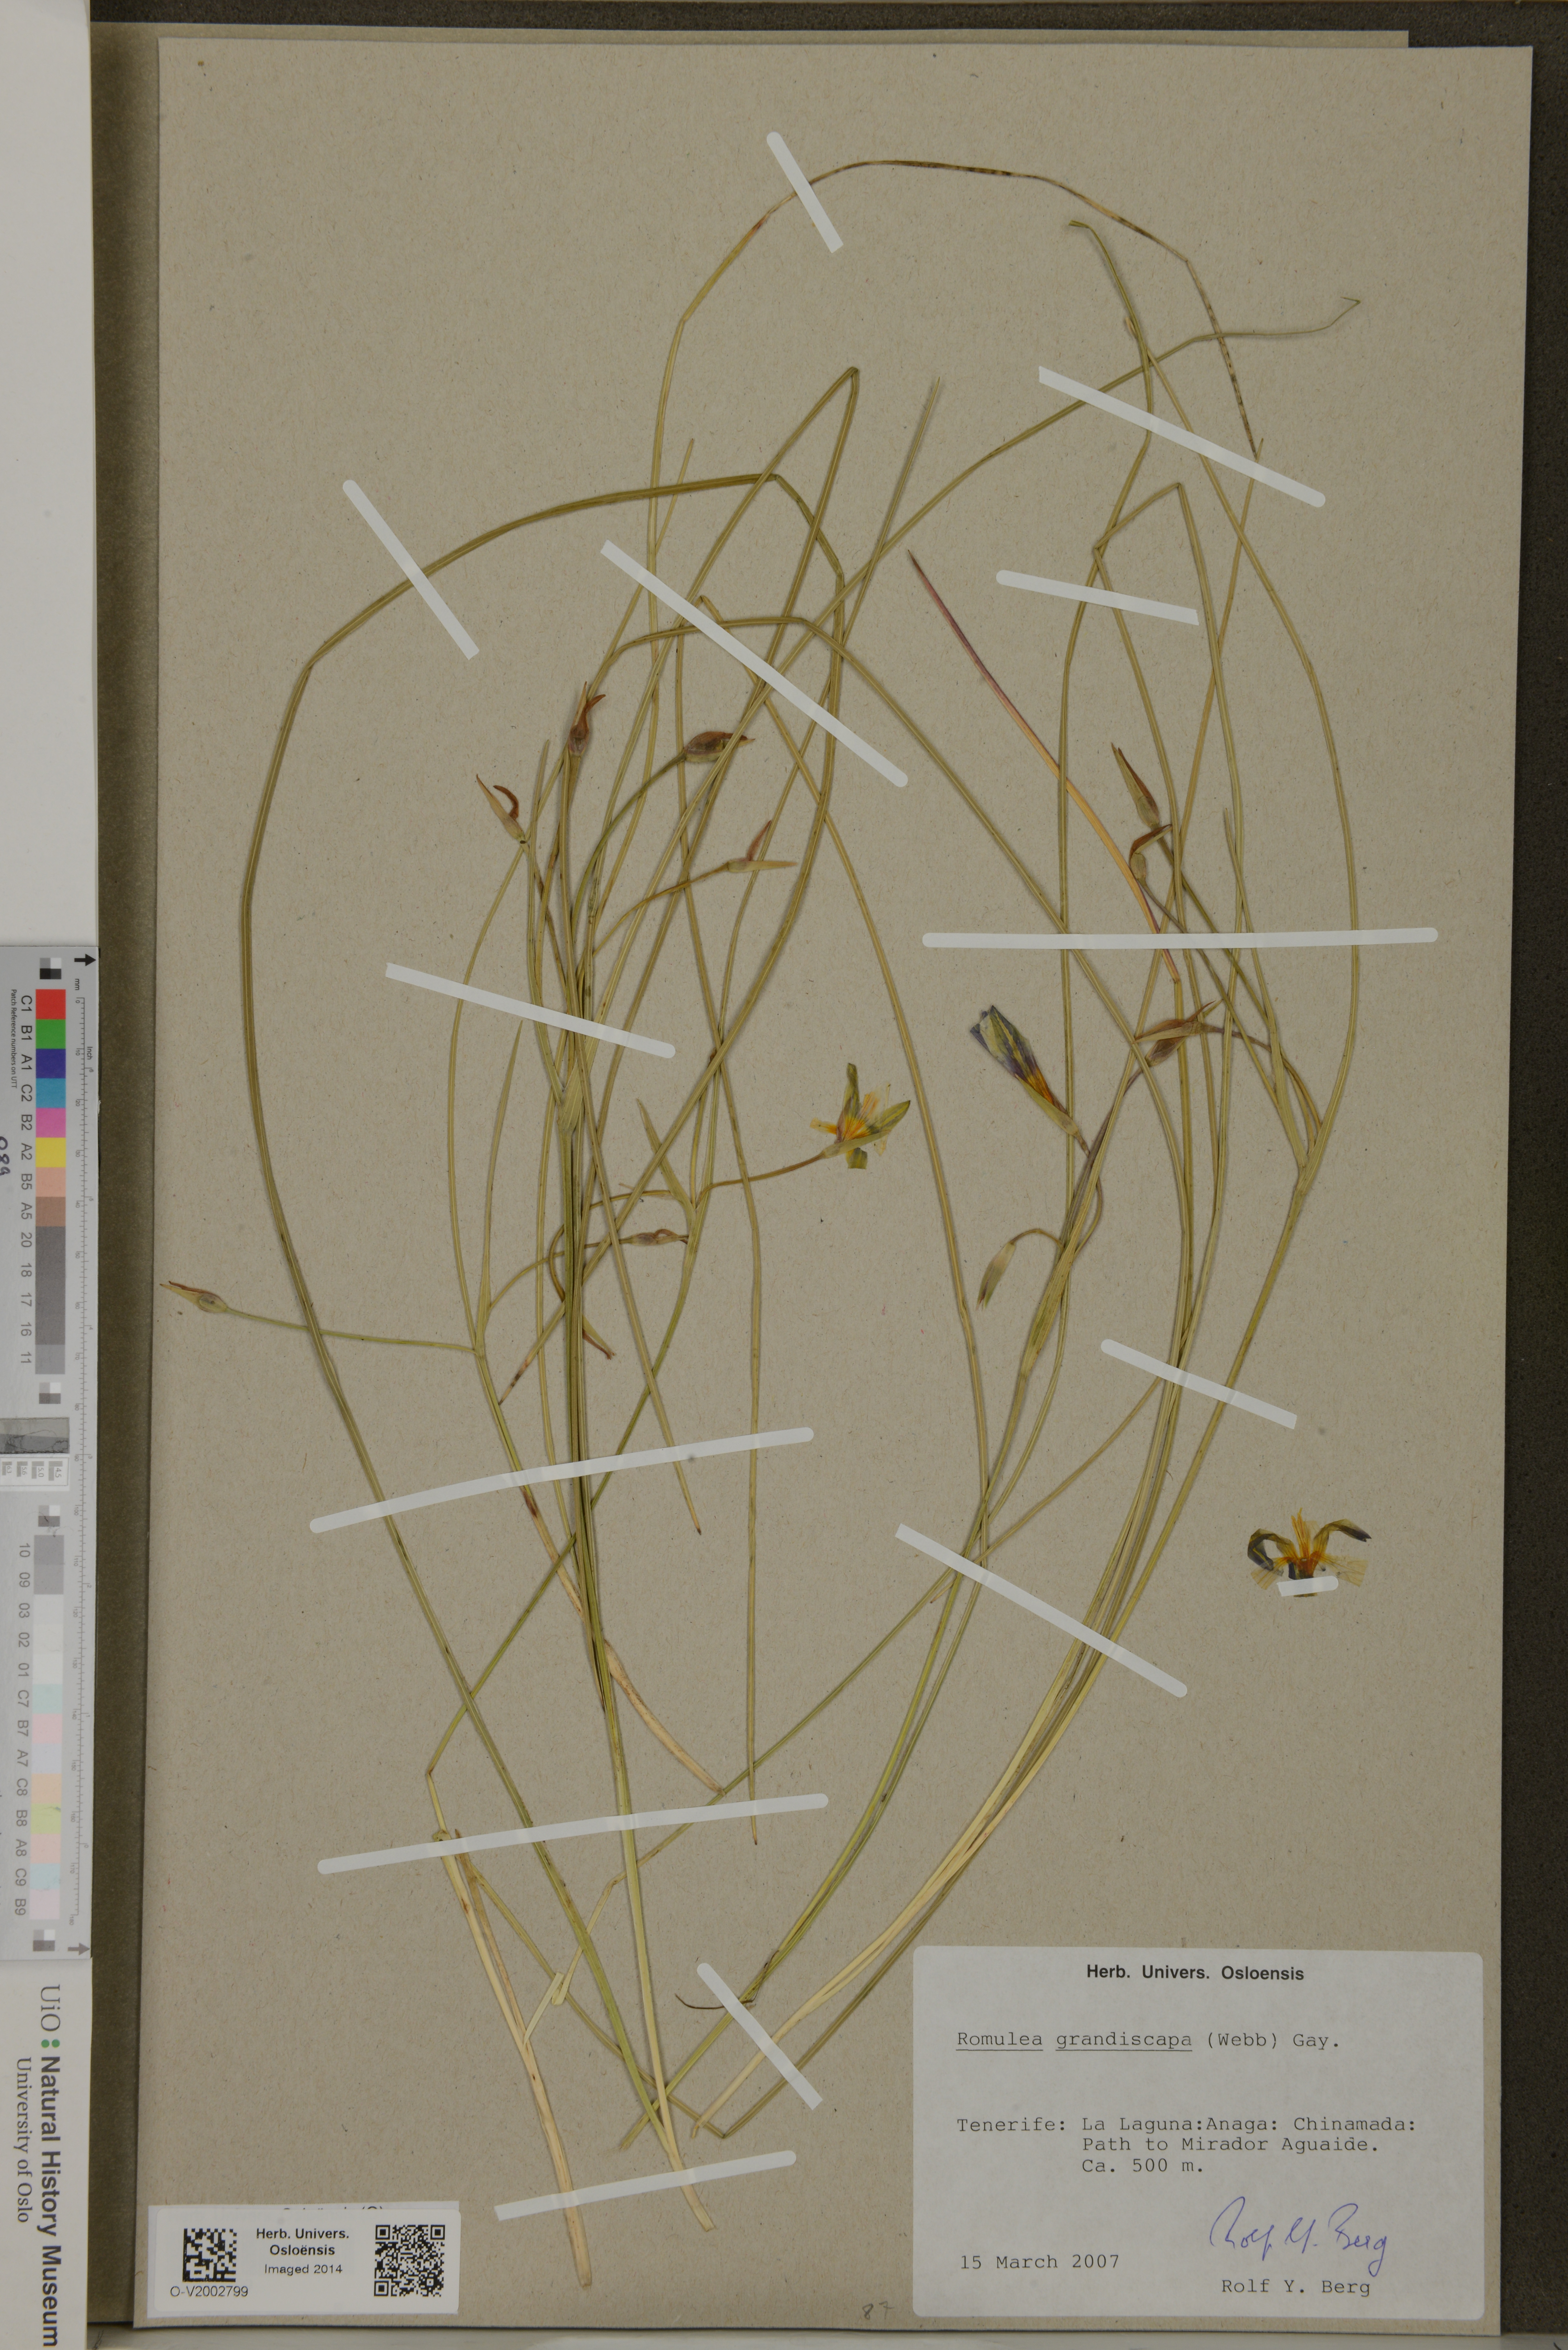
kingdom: Plantae
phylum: Tracheophyta
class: Liliopsida
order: Asparagales
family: Iridaceae
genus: Romulea
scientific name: Romulea columnae
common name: Sand-crocus
